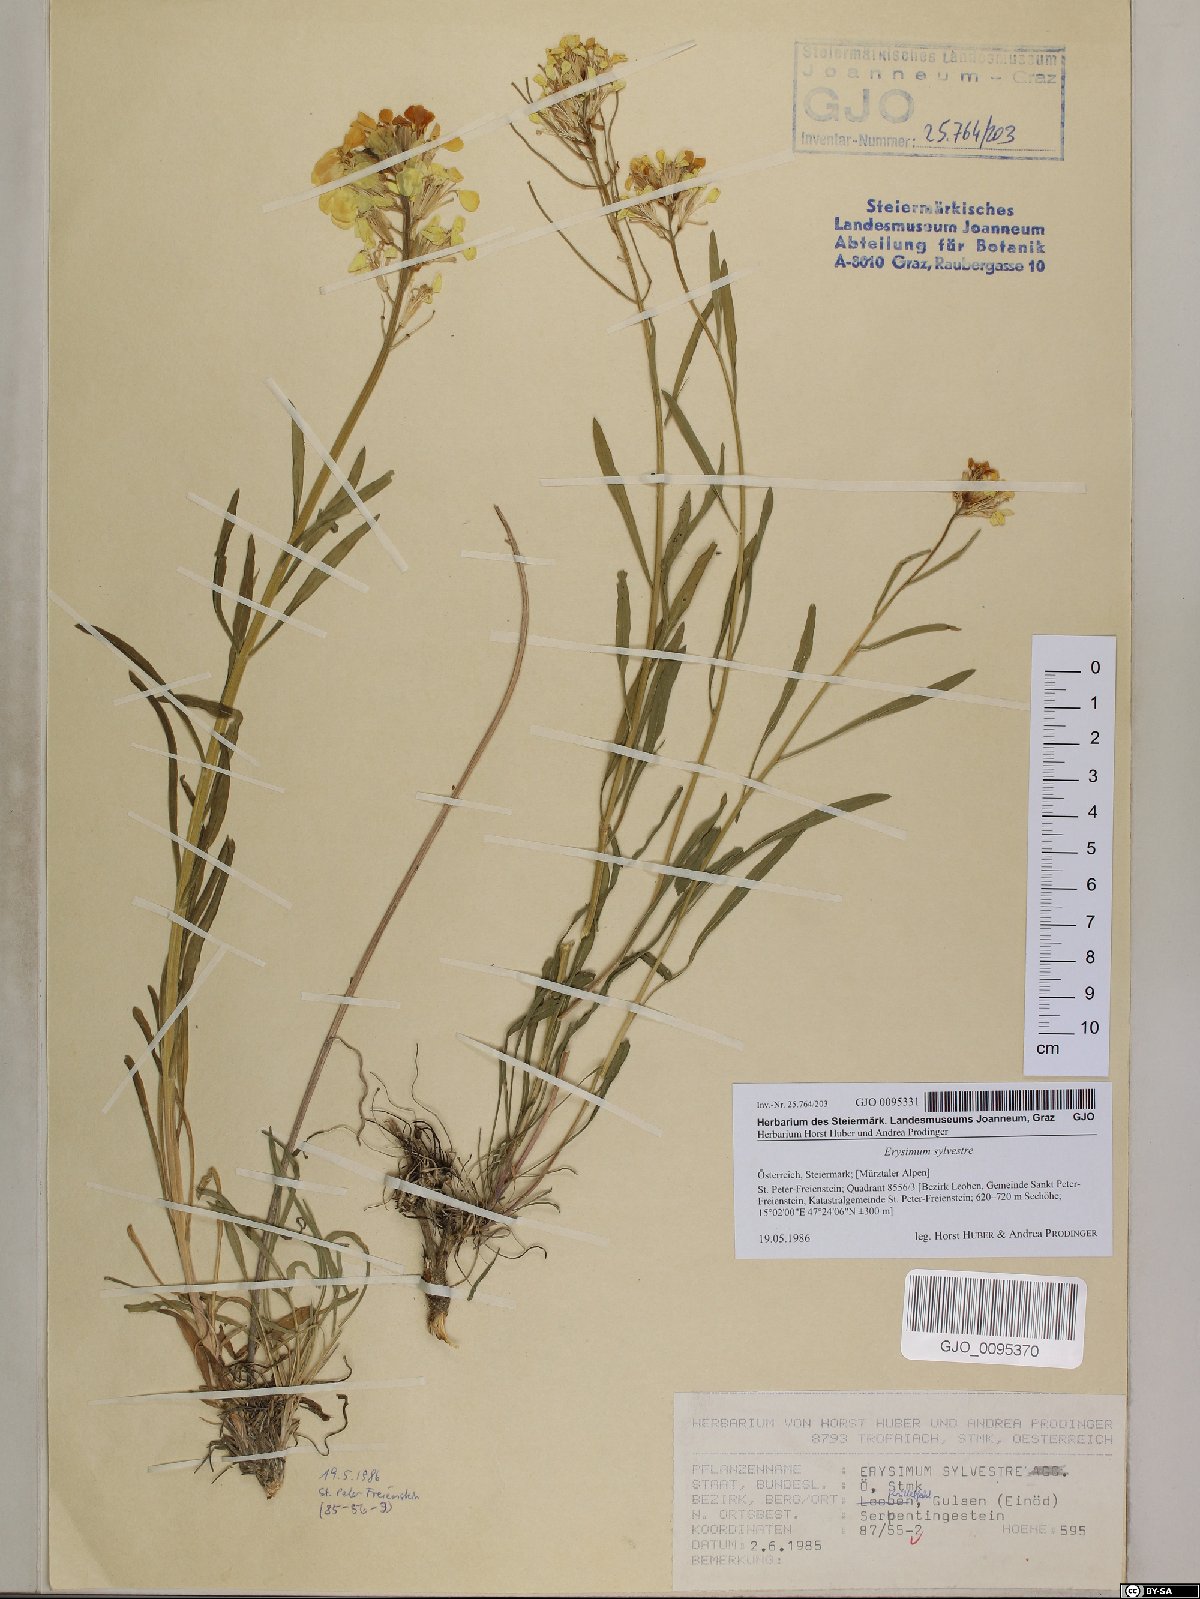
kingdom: Plantae
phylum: Tracheophyta
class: Magnoliopsida
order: Brassicales
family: Brassicaceae
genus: Erysimum
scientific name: Erysimum sylvestre
